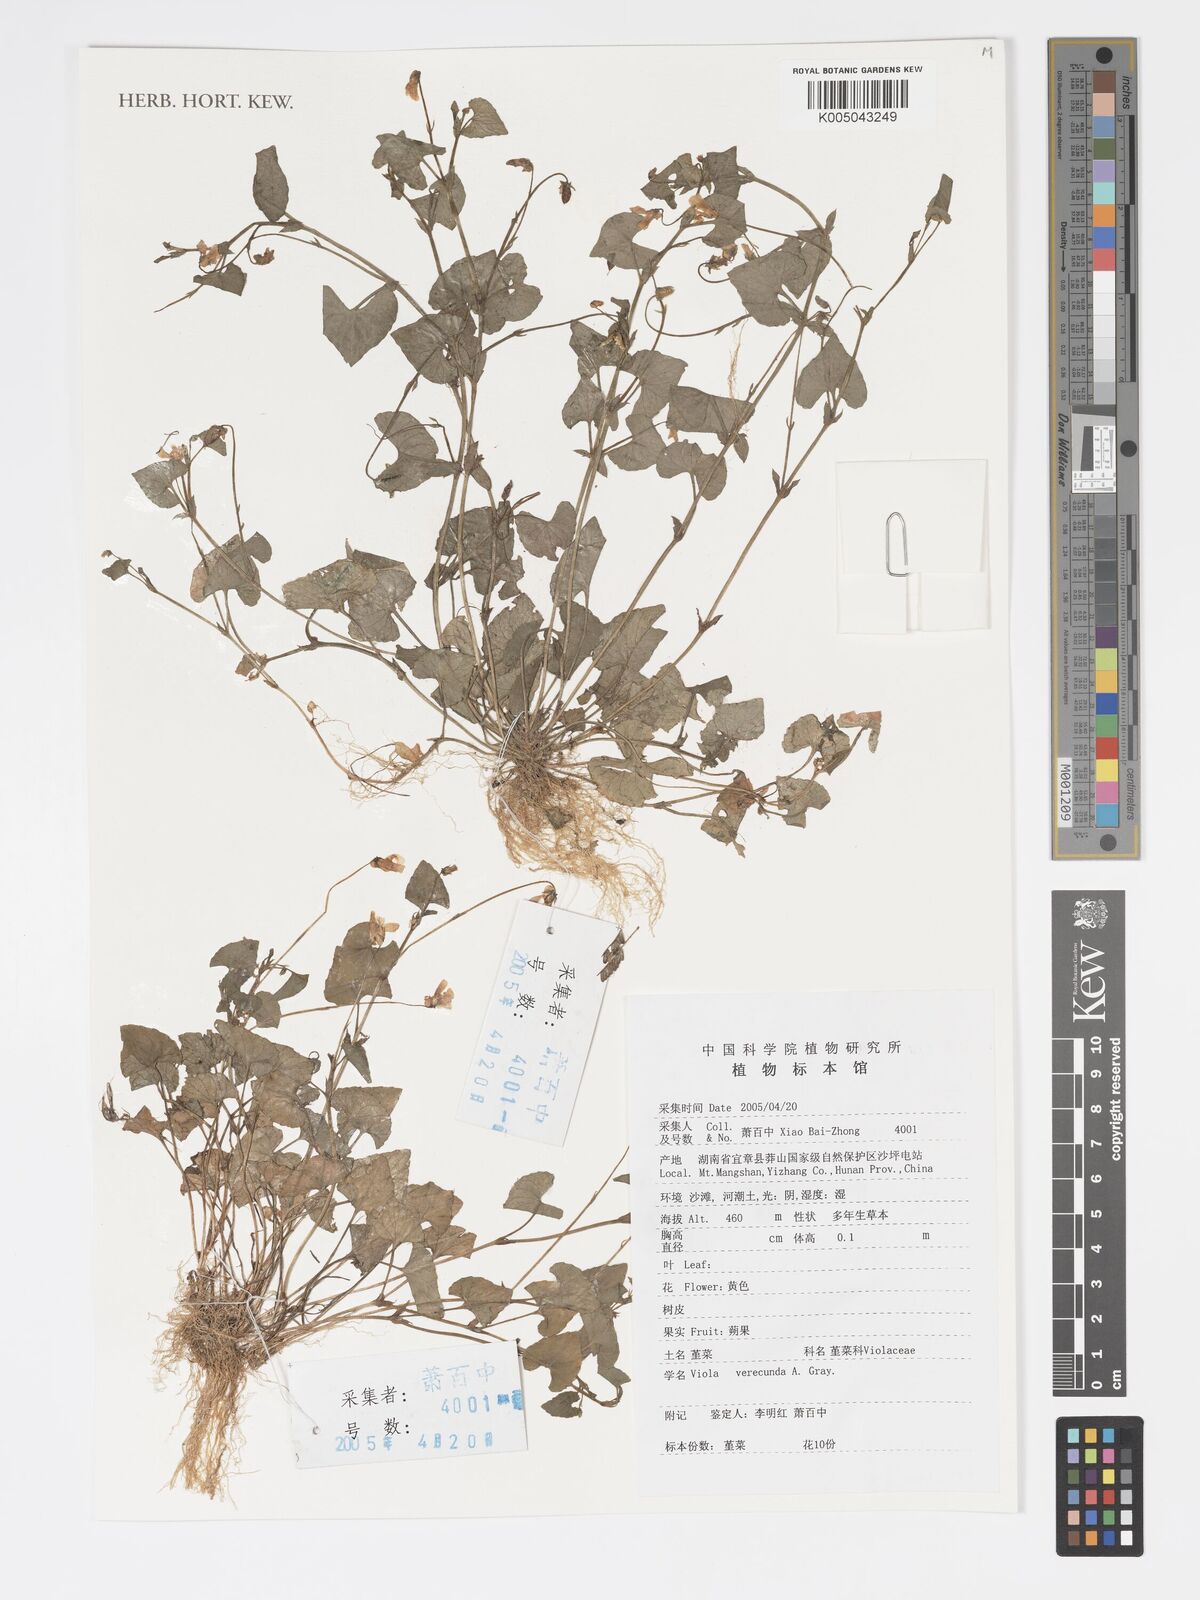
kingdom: Plantae
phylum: Tracheophyta
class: Magnoliopsida
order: Malpighiales
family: Violaceae
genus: Viola
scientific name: Viola hamiltoniana
